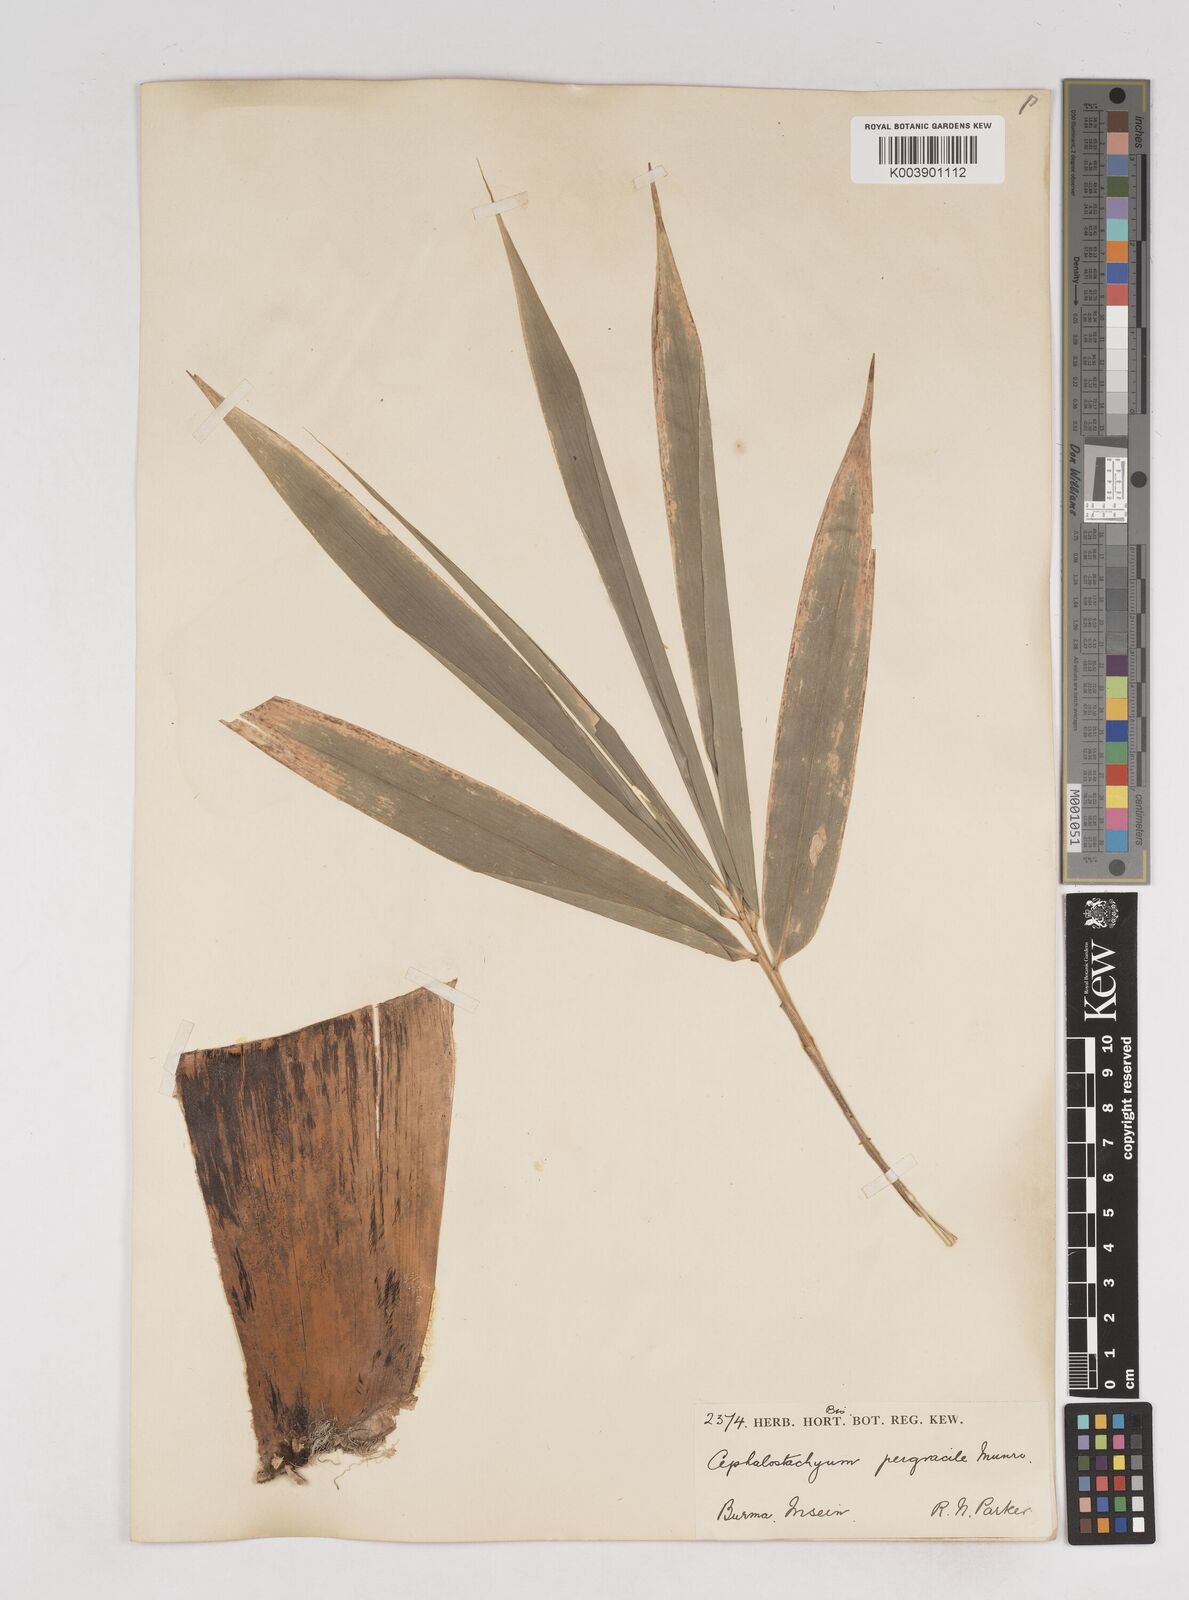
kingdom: Plantae
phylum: Tracheophyta
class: Liliopsida
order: Poales
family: Poaceae
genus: Schizostachyum
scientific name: Schizostachyum pergracile
